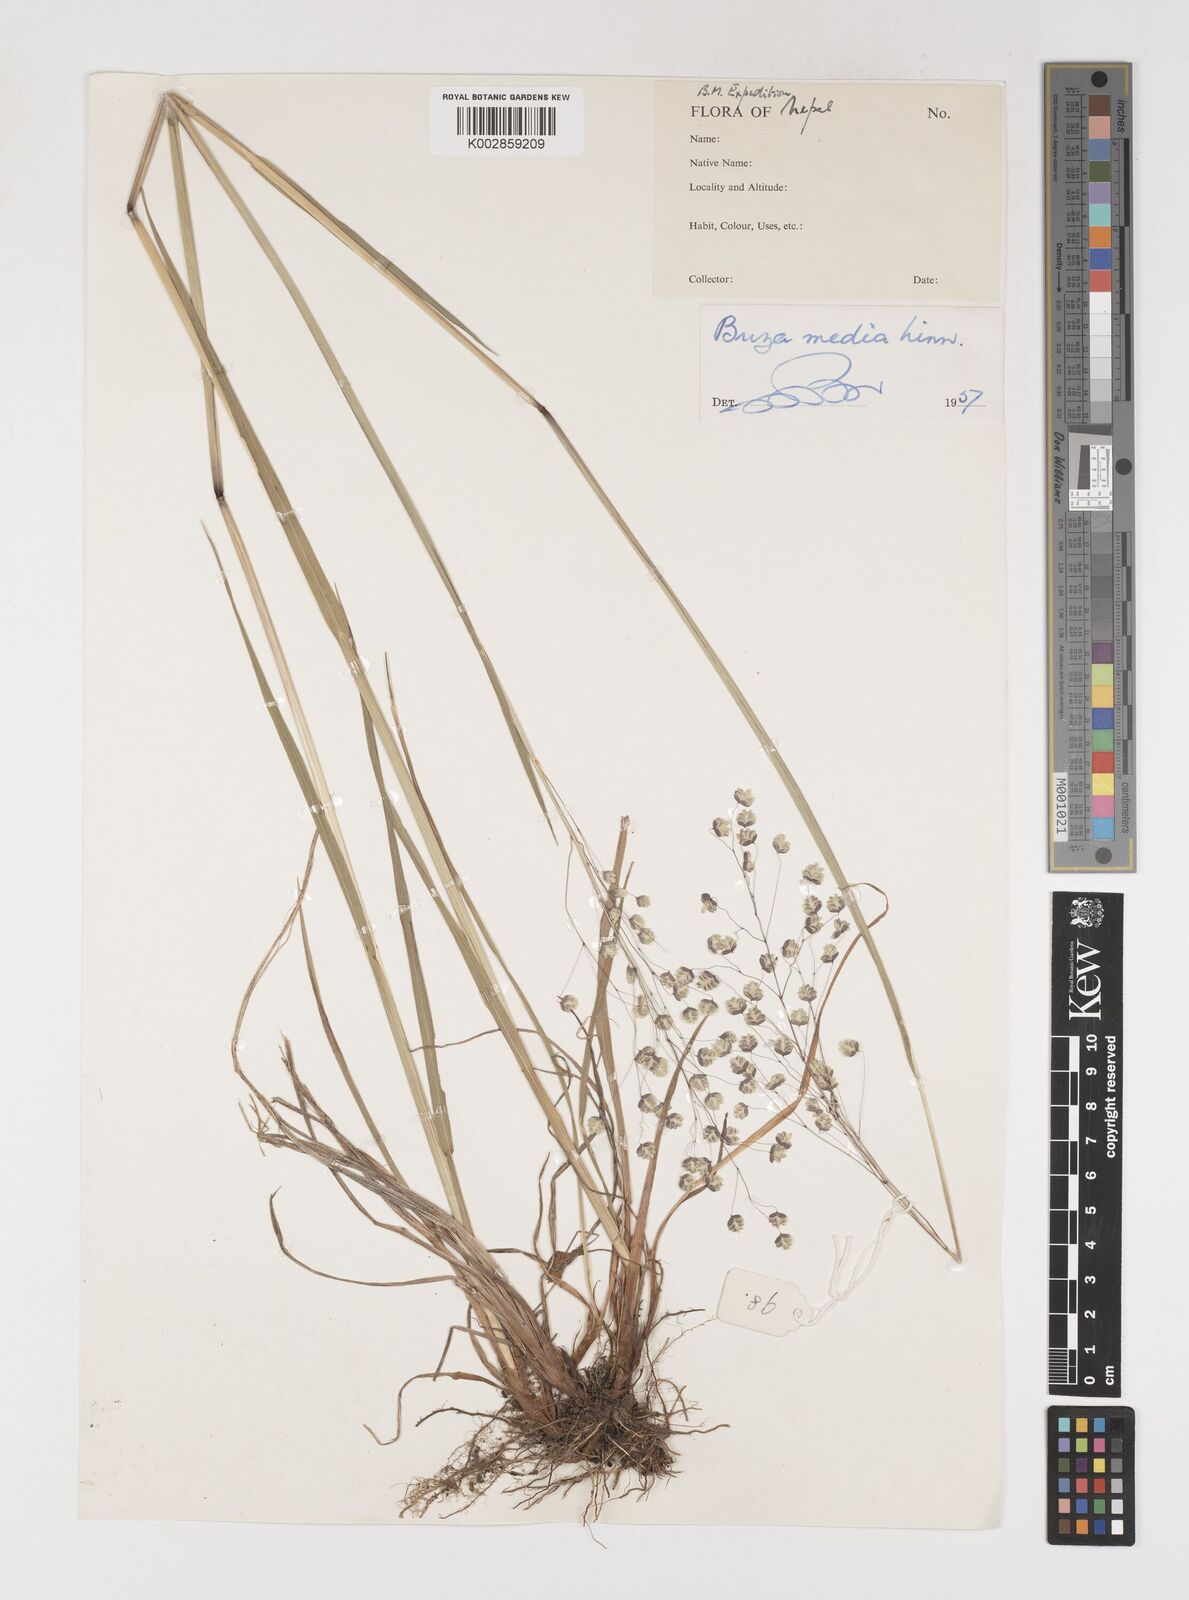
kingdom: Plantae
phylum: Tracheophyta
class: Liliopsida
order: Poales
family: Poaceae
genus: Briza
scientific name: Briza media
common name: Quaking grass
